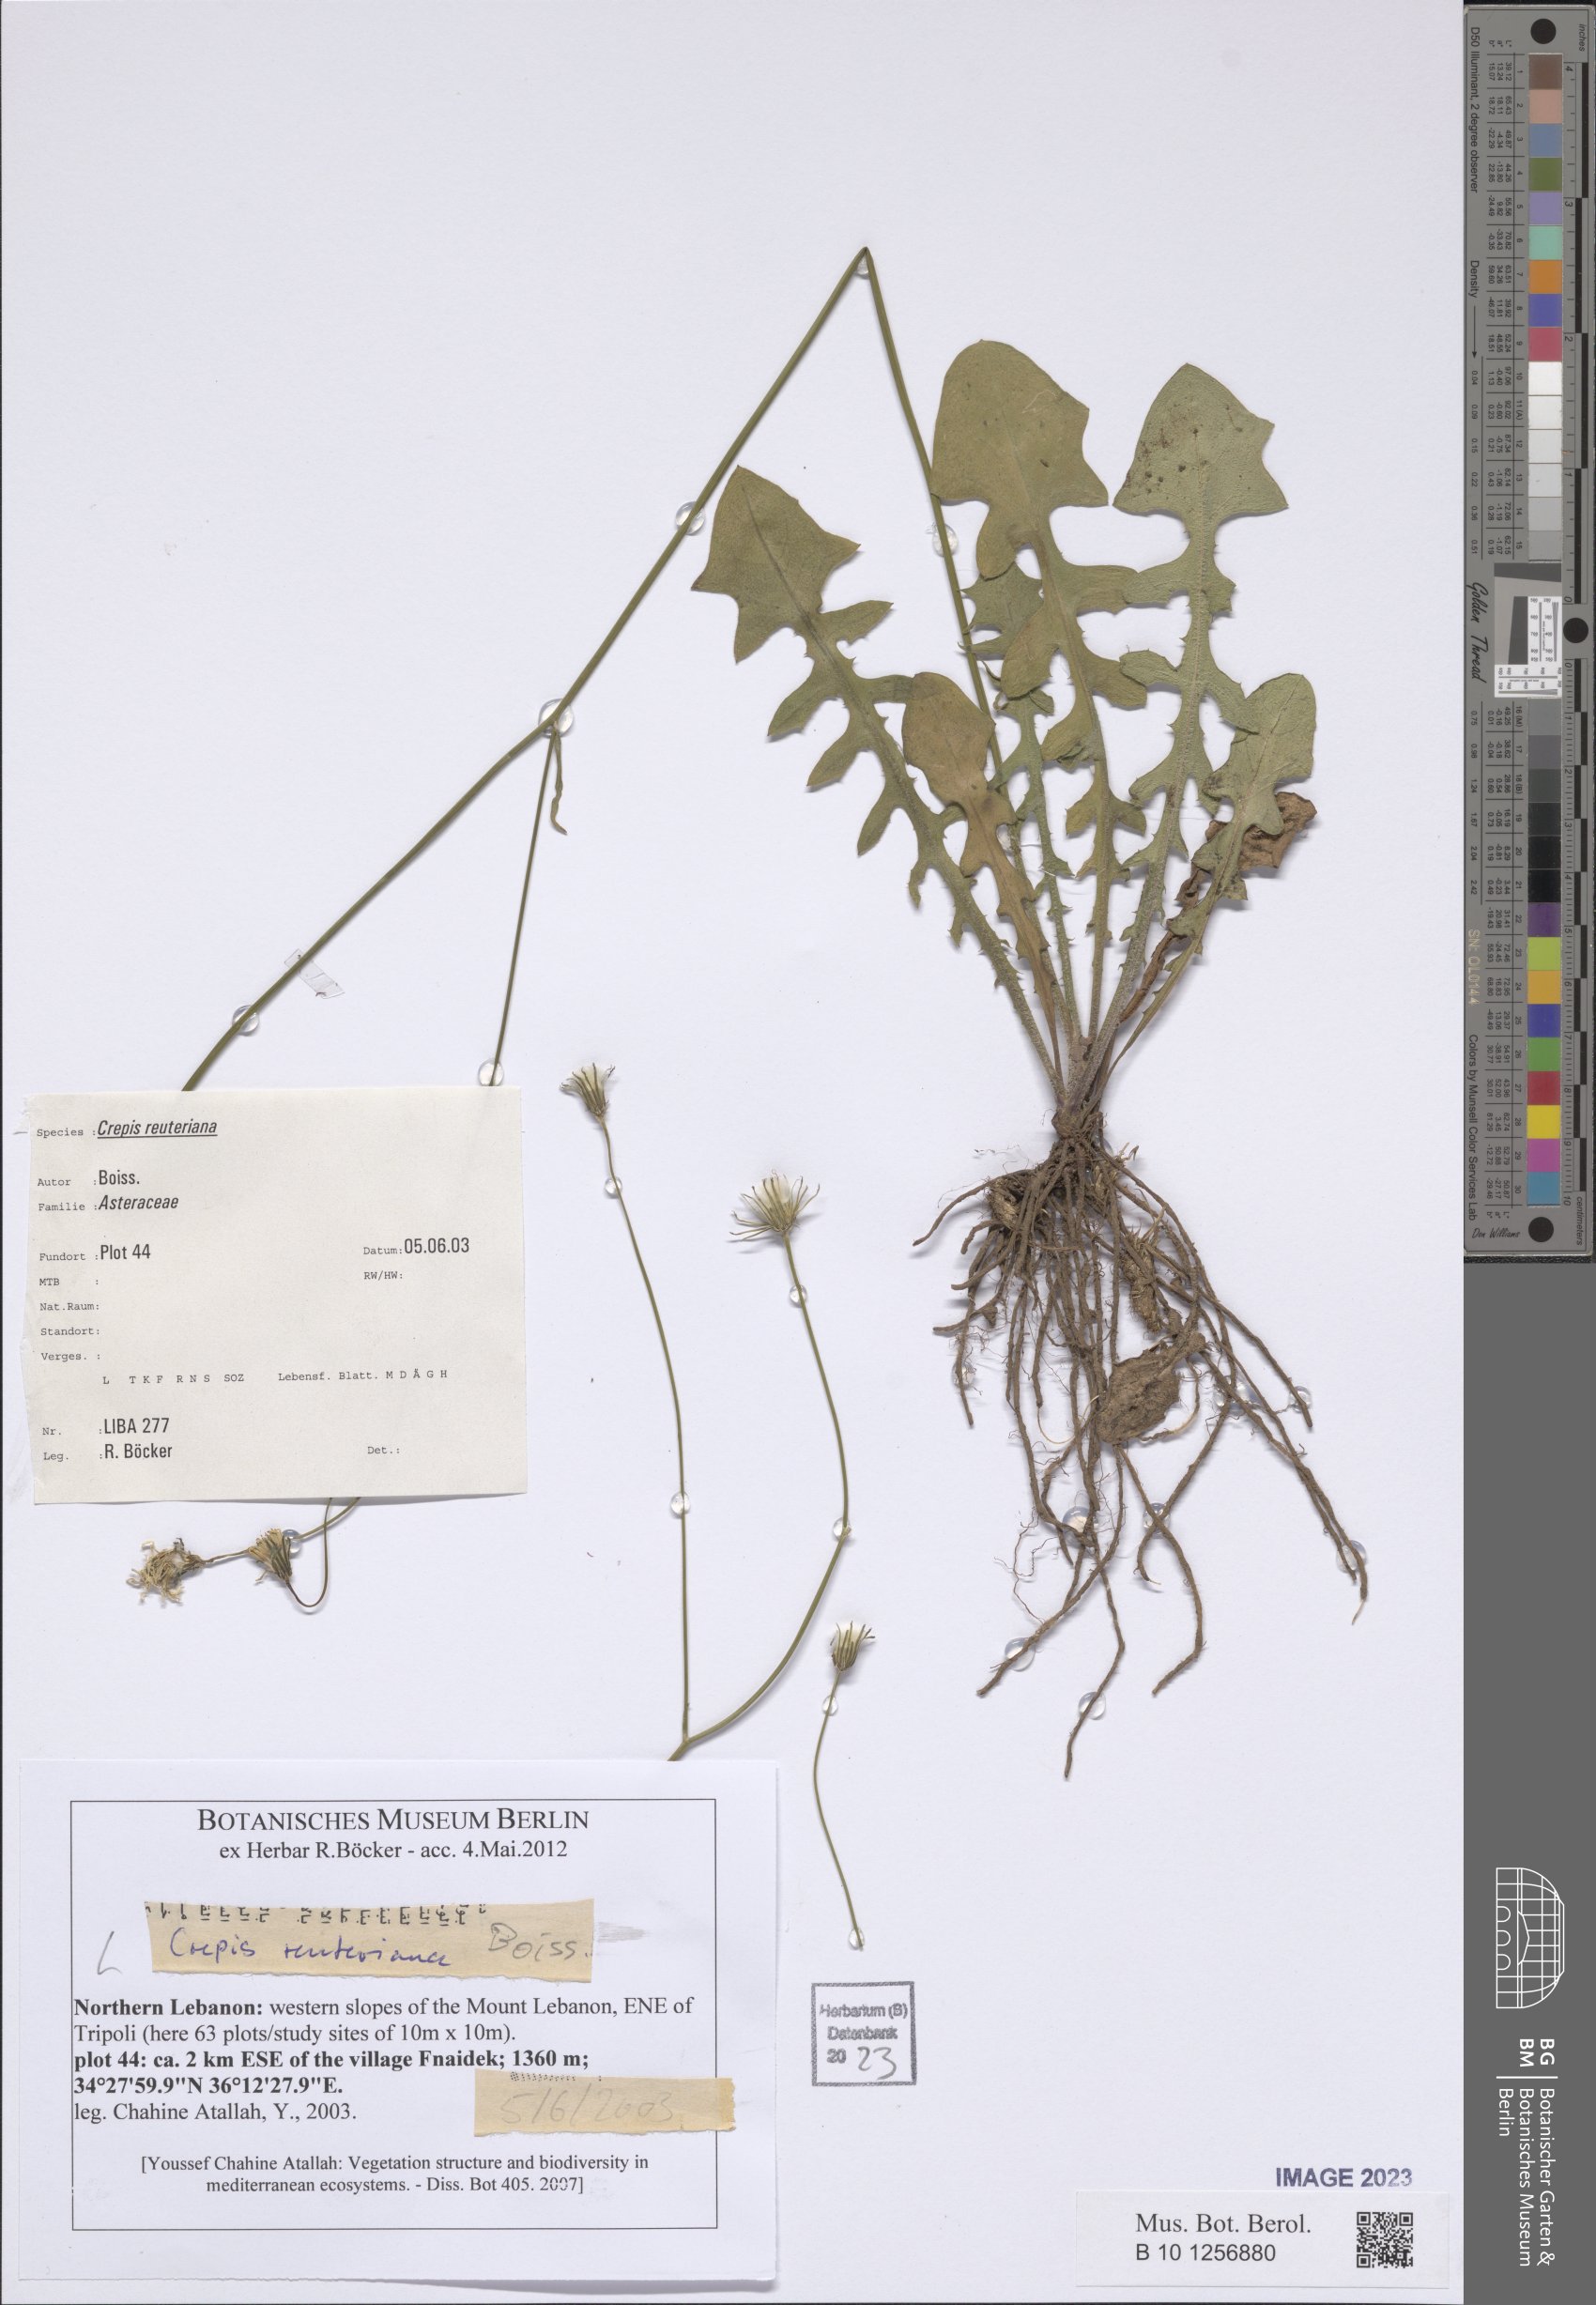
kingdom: Plantae
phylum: Tracheophyta
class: Magnoliopsida
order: Asterales
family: Asteraceae
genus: Crepis
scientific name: Crepis reuteriana
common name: Hawk's-beard
